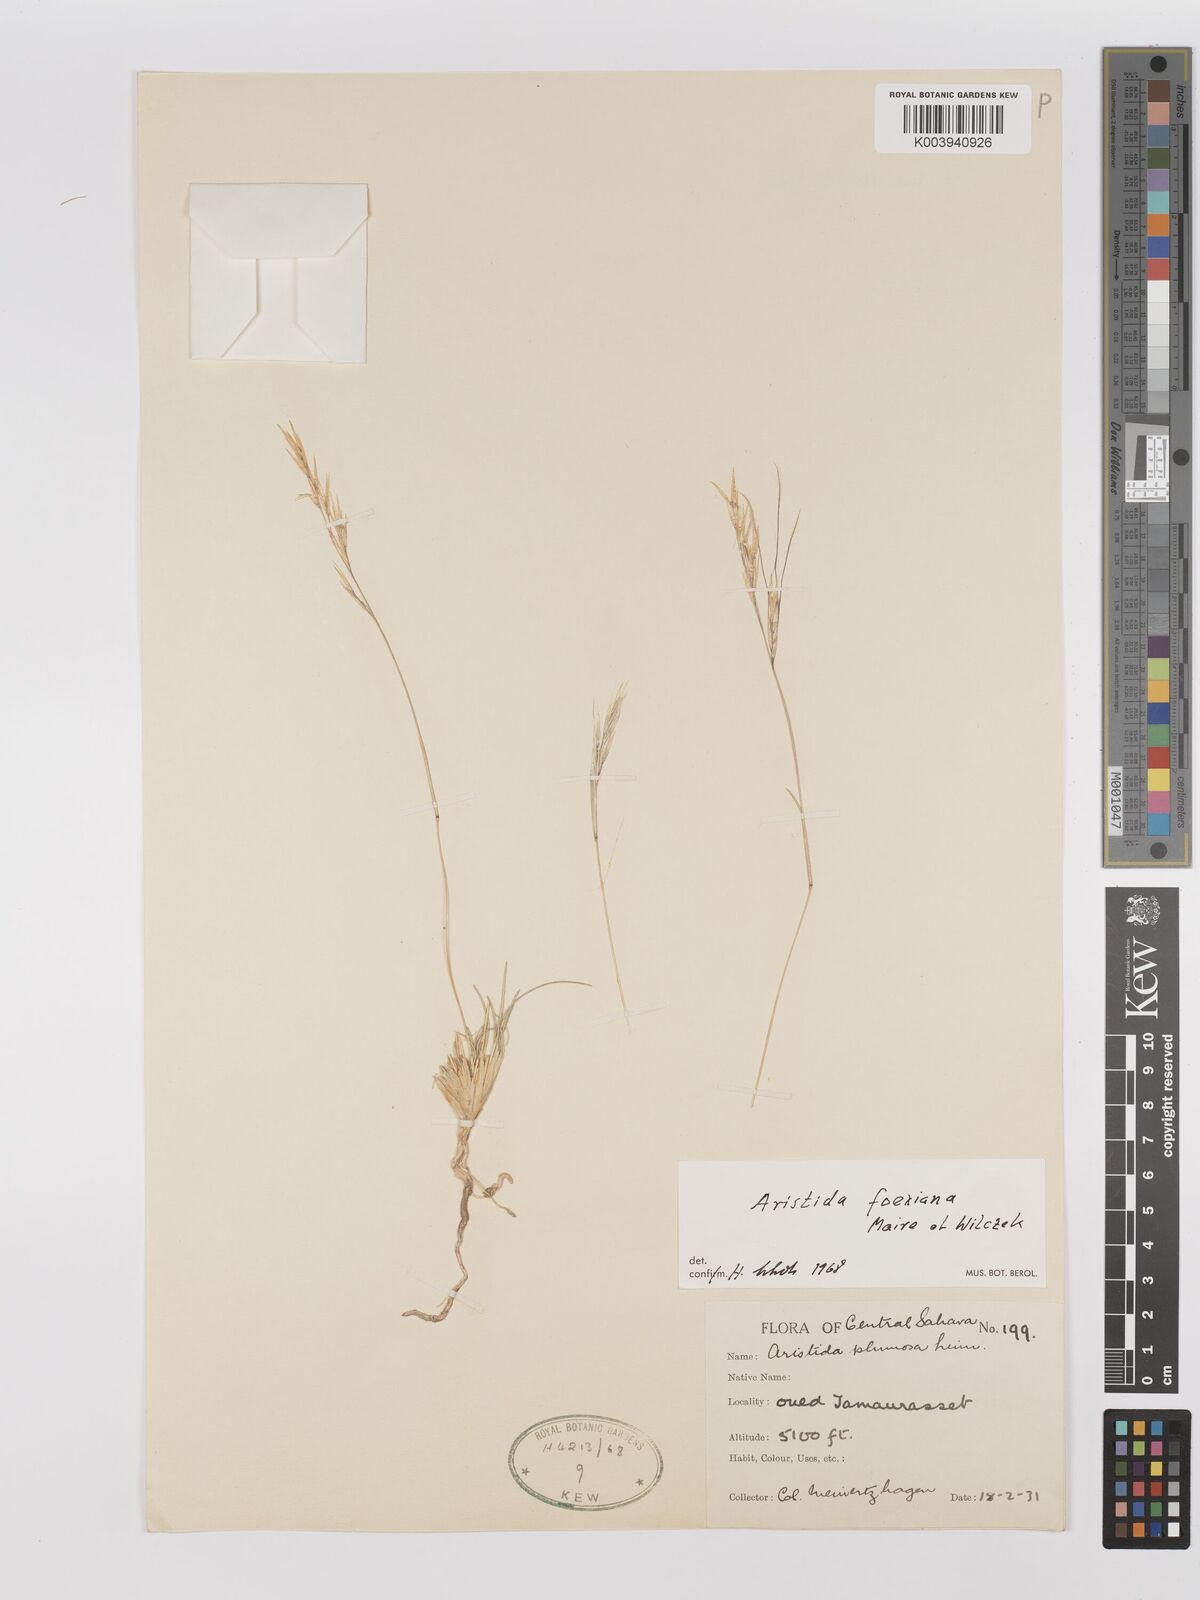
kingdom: Plantae
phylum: Tracheophyta
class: Liliopsida
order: Poales
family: Poaceae
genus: Stipagrostis
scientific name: Stipagrostis foexiana
